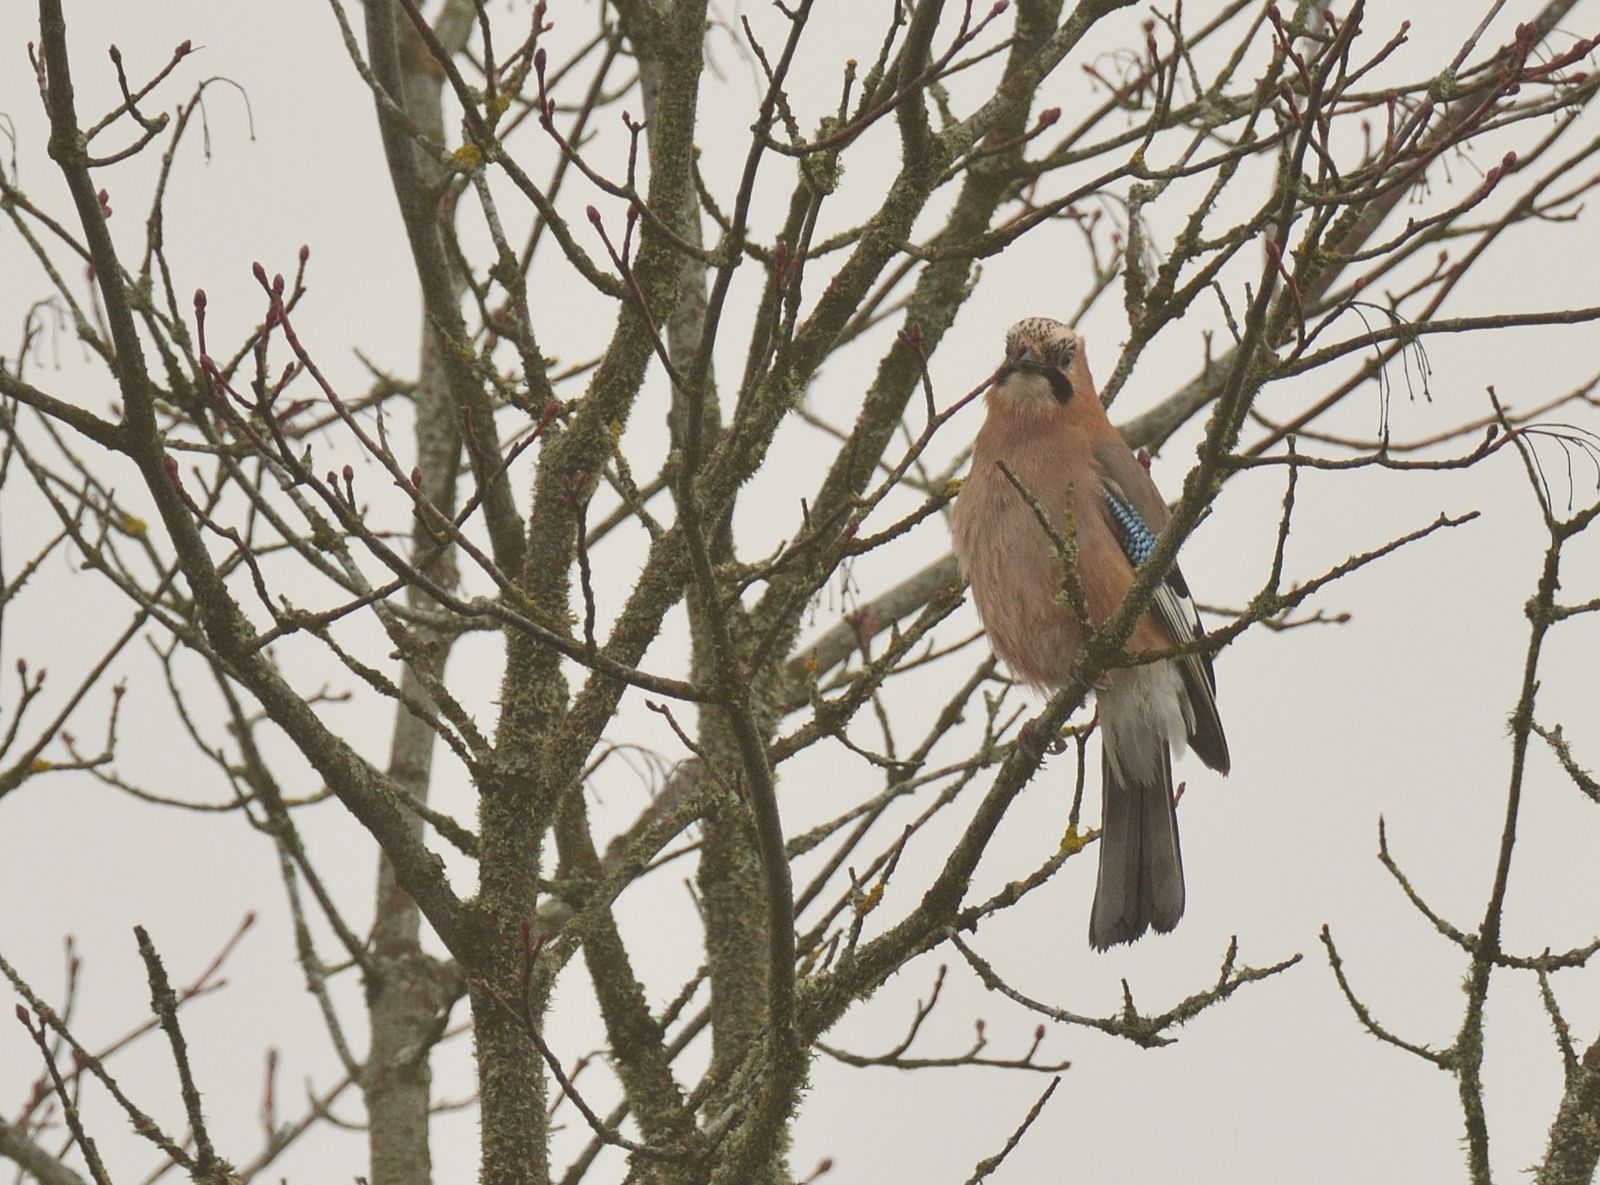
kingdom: Animalia
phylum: Chordata
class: Aves
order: Passeriformes
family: Corvidae
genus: Garrulus
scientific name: Garrulus glandarius
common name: Eurasian jay
